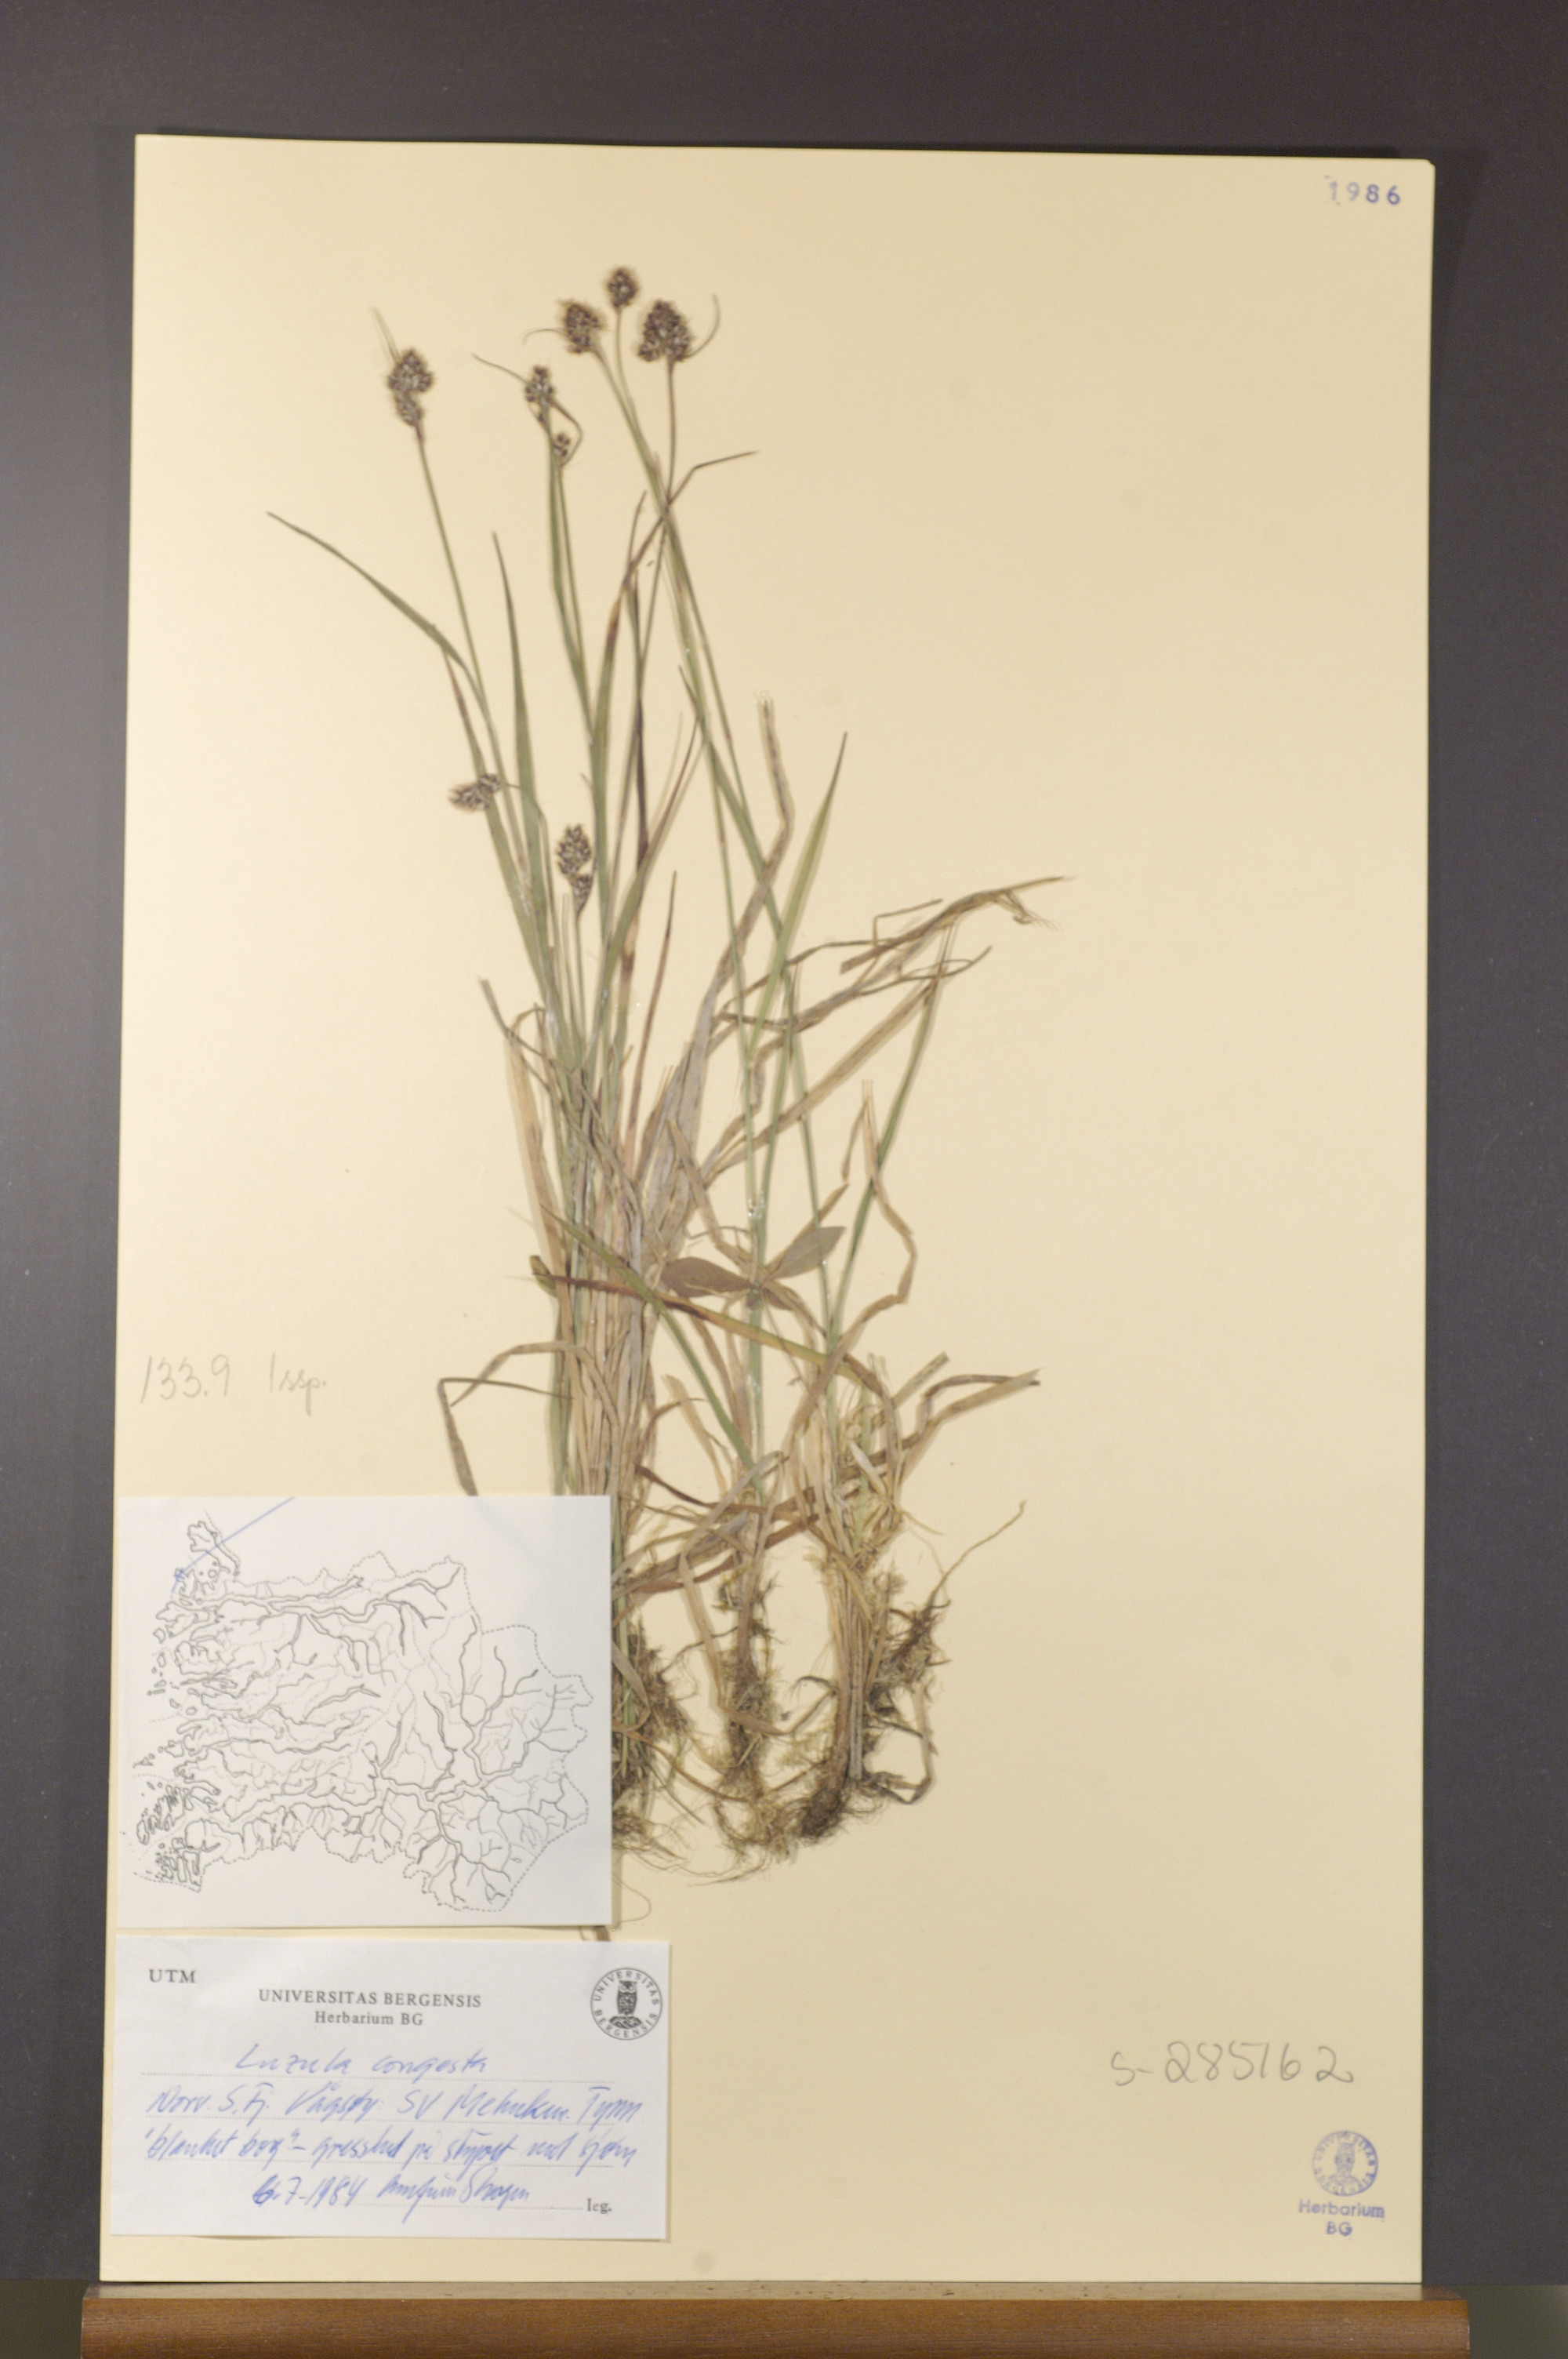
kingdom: Plantae
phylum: Tracheophyta
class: Liliopsida
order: Poales
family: Juncaceae
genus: Luzula
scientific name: Luzula congesta
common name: Heath woodrush
